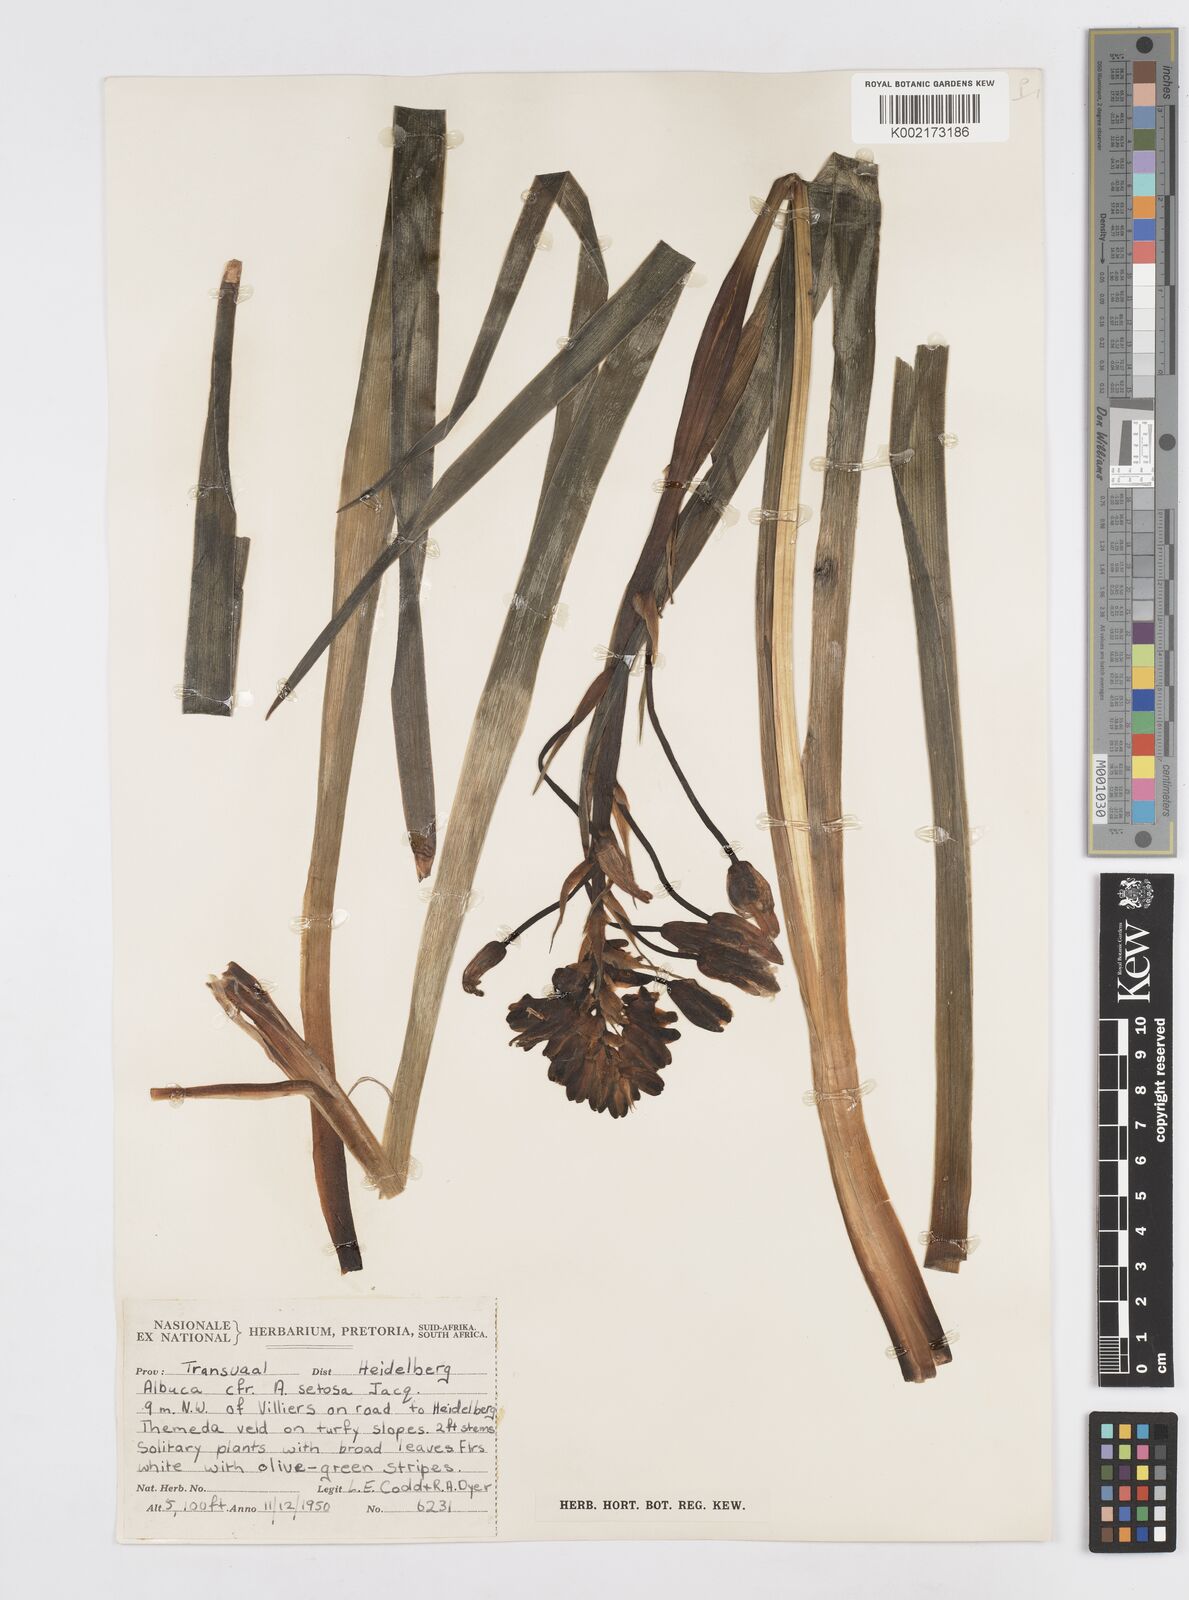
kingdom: Plantae
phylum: Tracheophyta
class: Liliopsida
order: Asparagales
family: Asparagaceae
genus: Albuca
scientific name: Albuca
